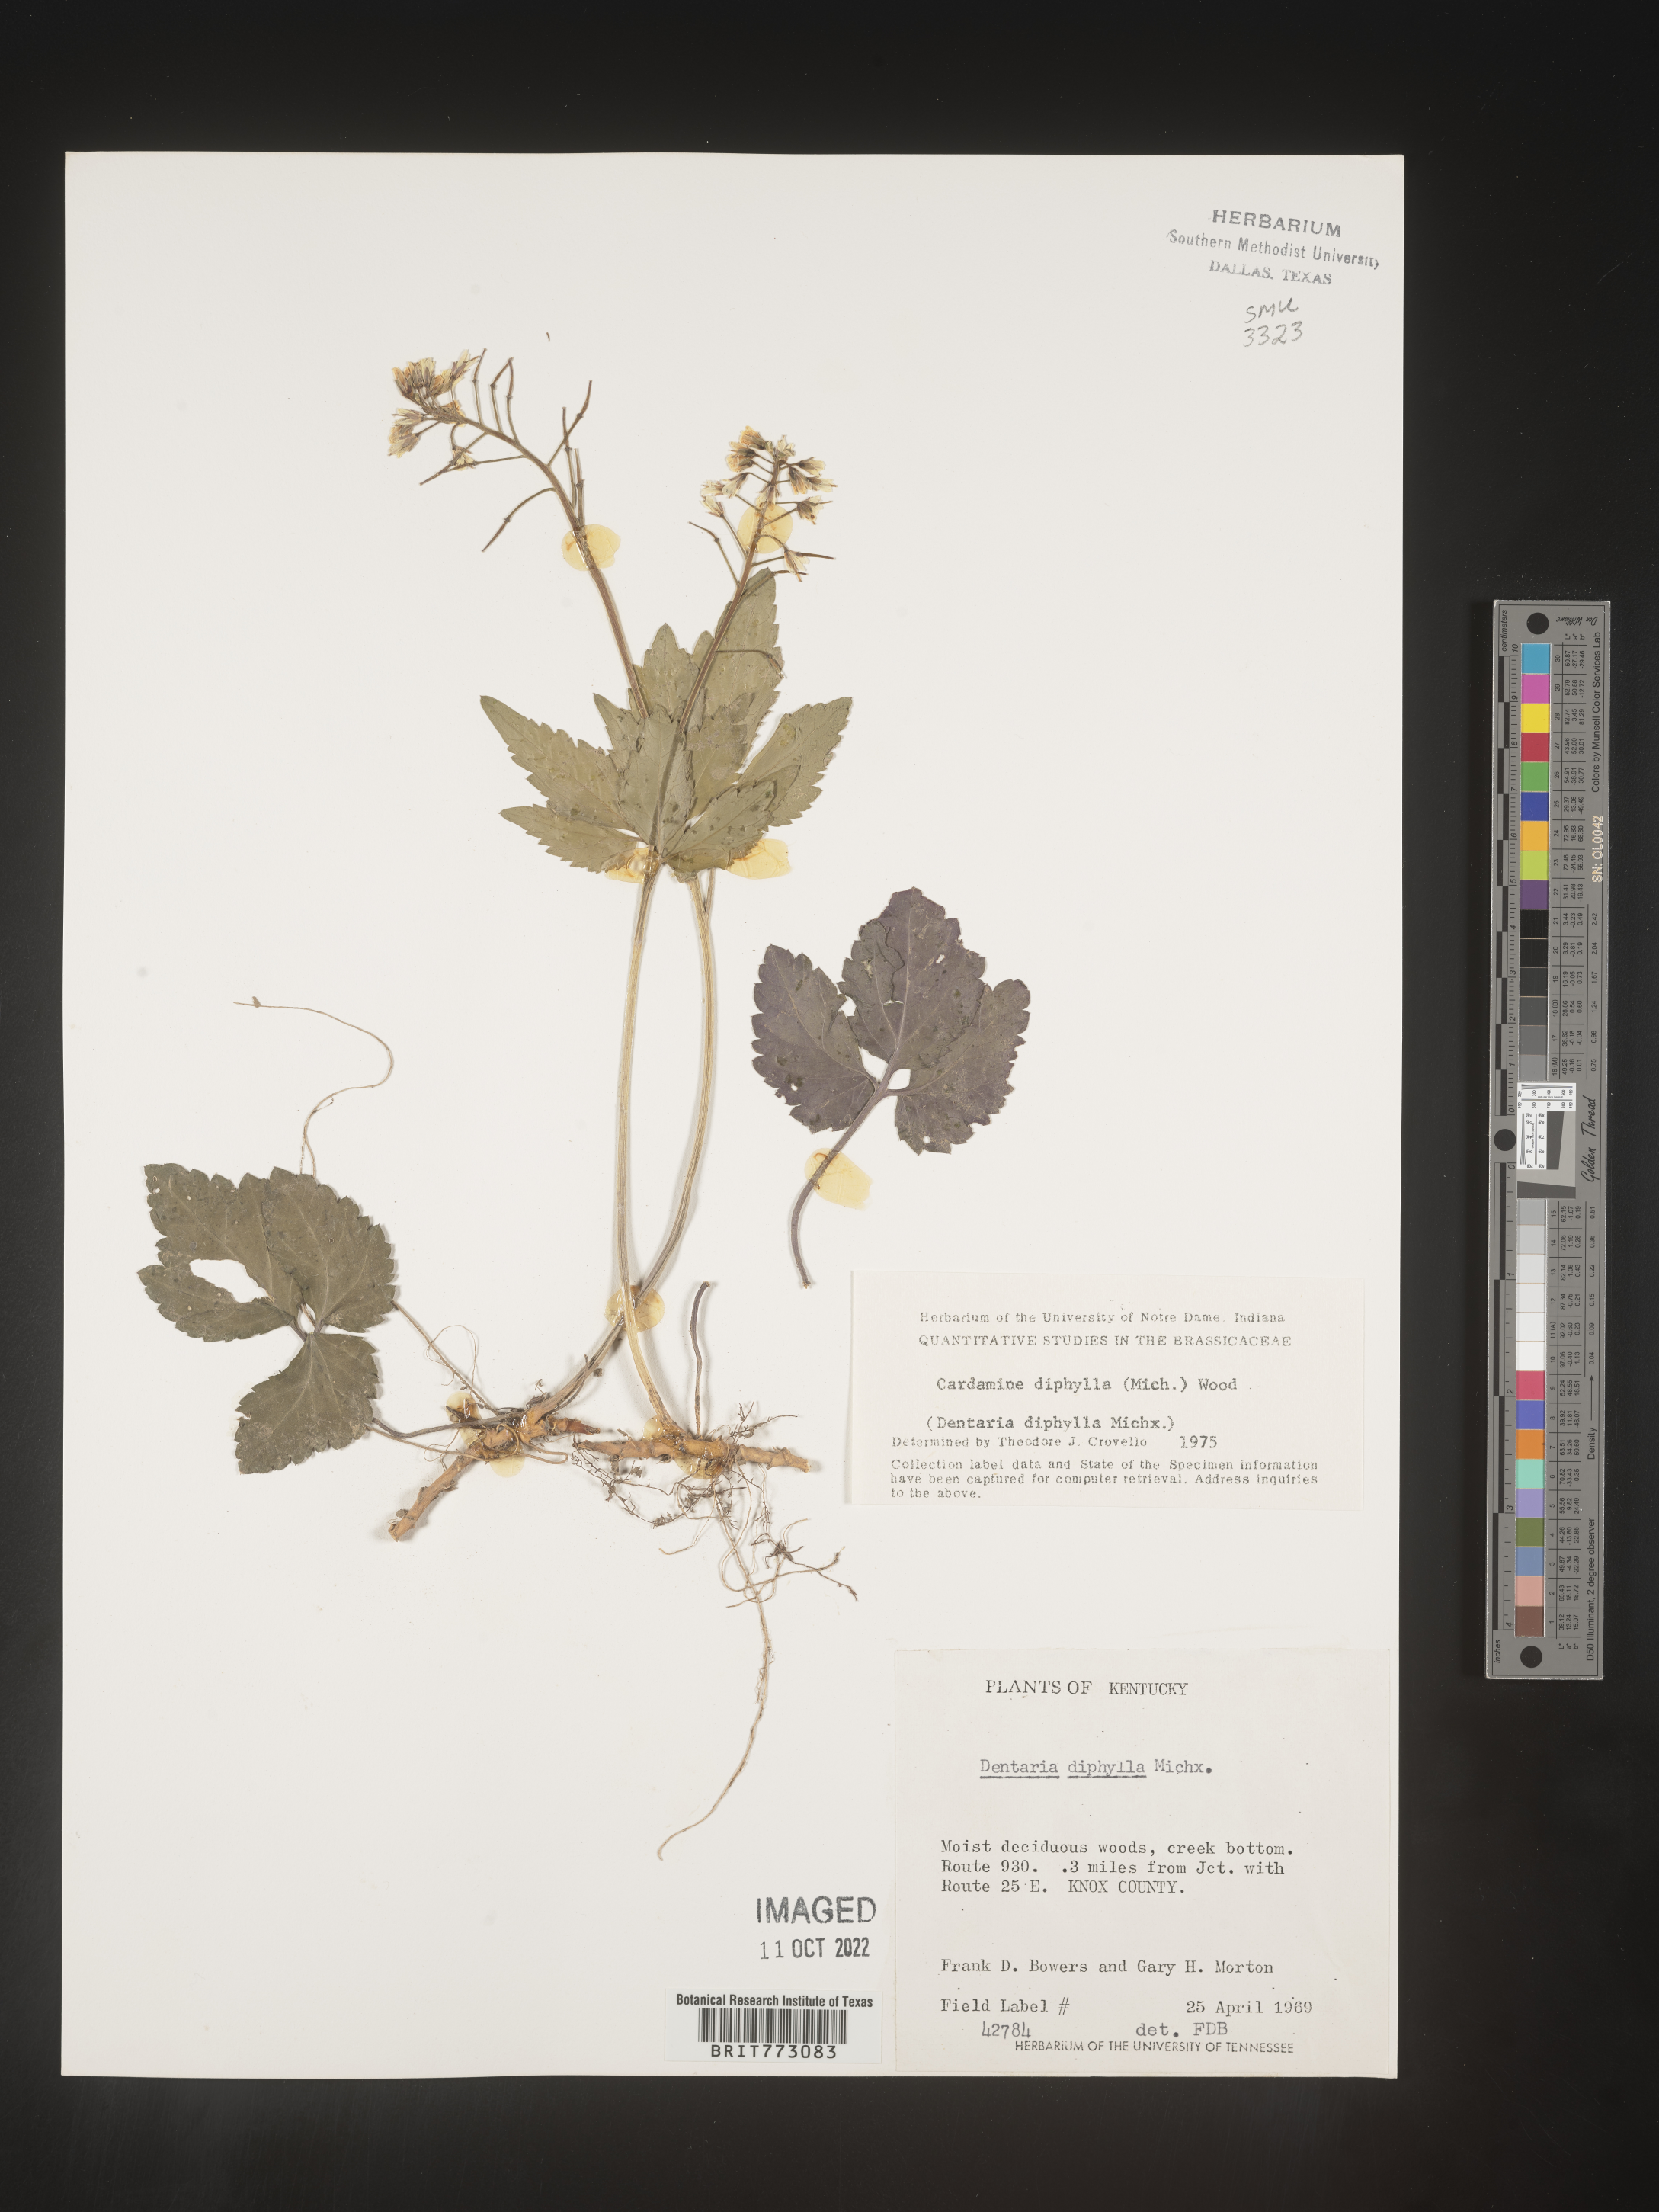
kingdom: Plantae
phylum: Tracheophyta
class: Magnoliopsida
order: Brassicales
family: Brassicaceae
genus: Cardamine
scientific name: Cardamine diphylla
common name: Broad-leaved toothwort
